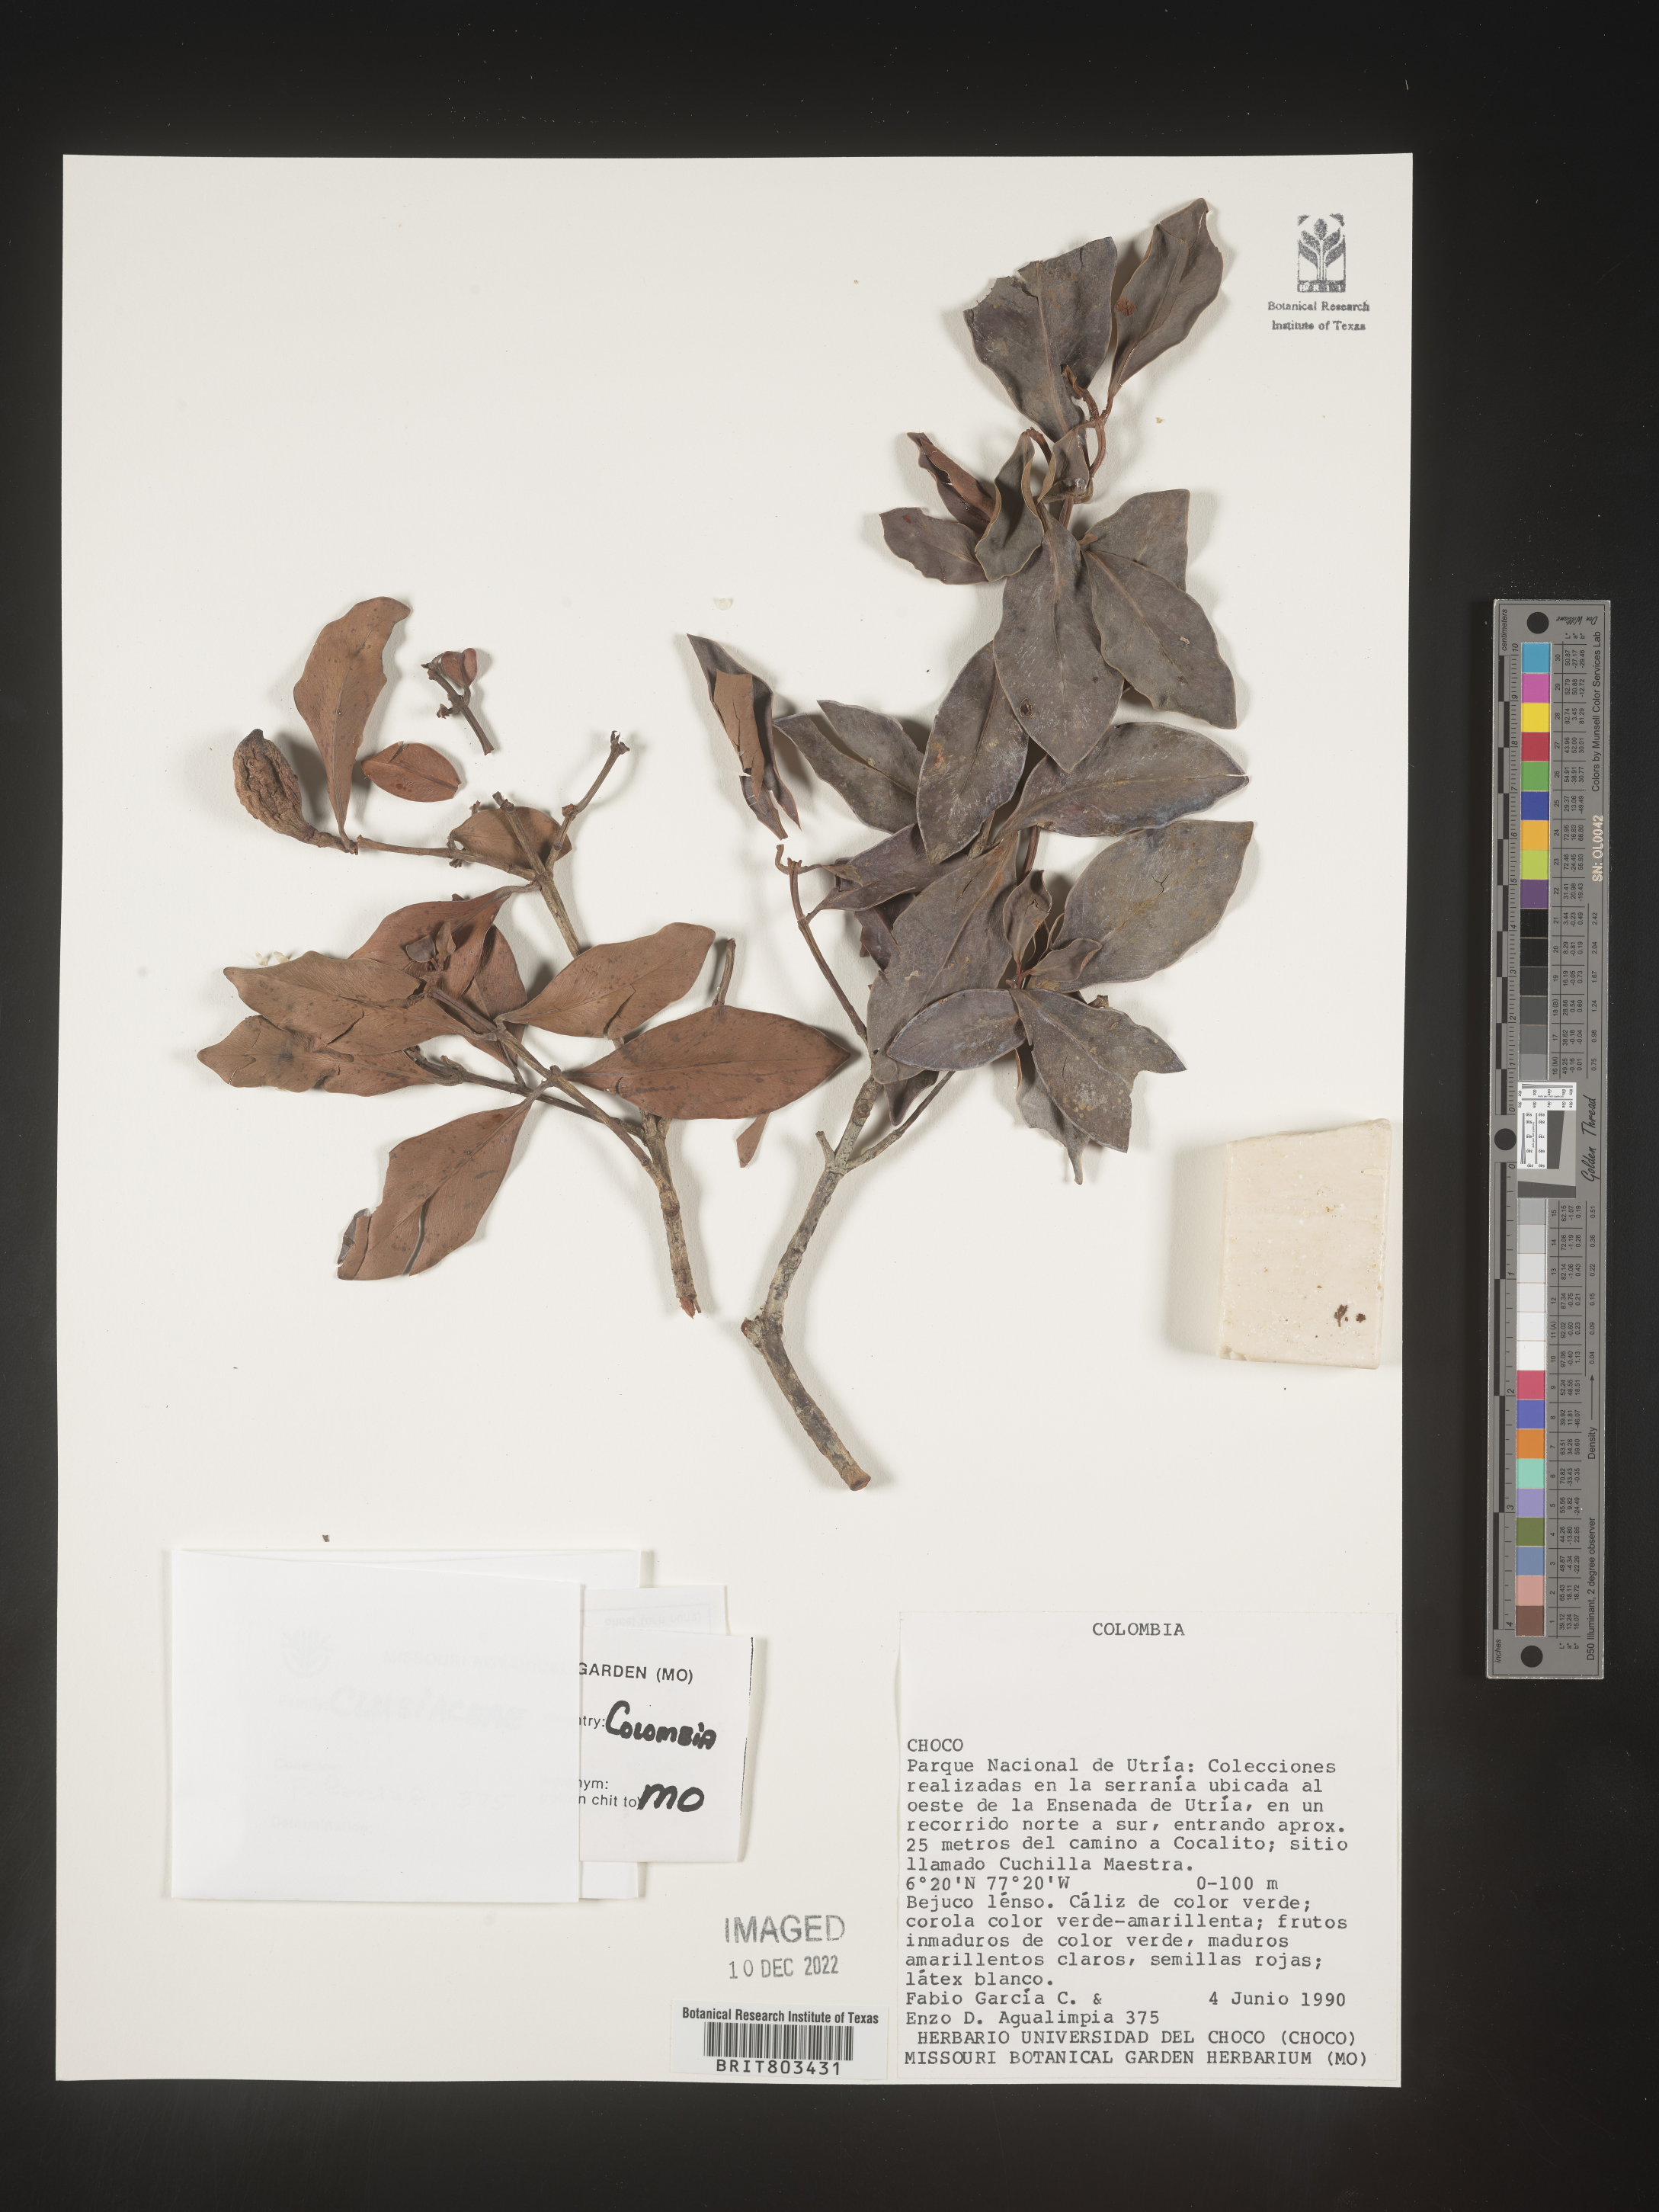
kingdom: Plantae
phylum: Tracheophyta
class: Magnoliopsida
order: Malpighiales
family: Clusiaceae
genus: Tovomita
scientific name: Tovomita
